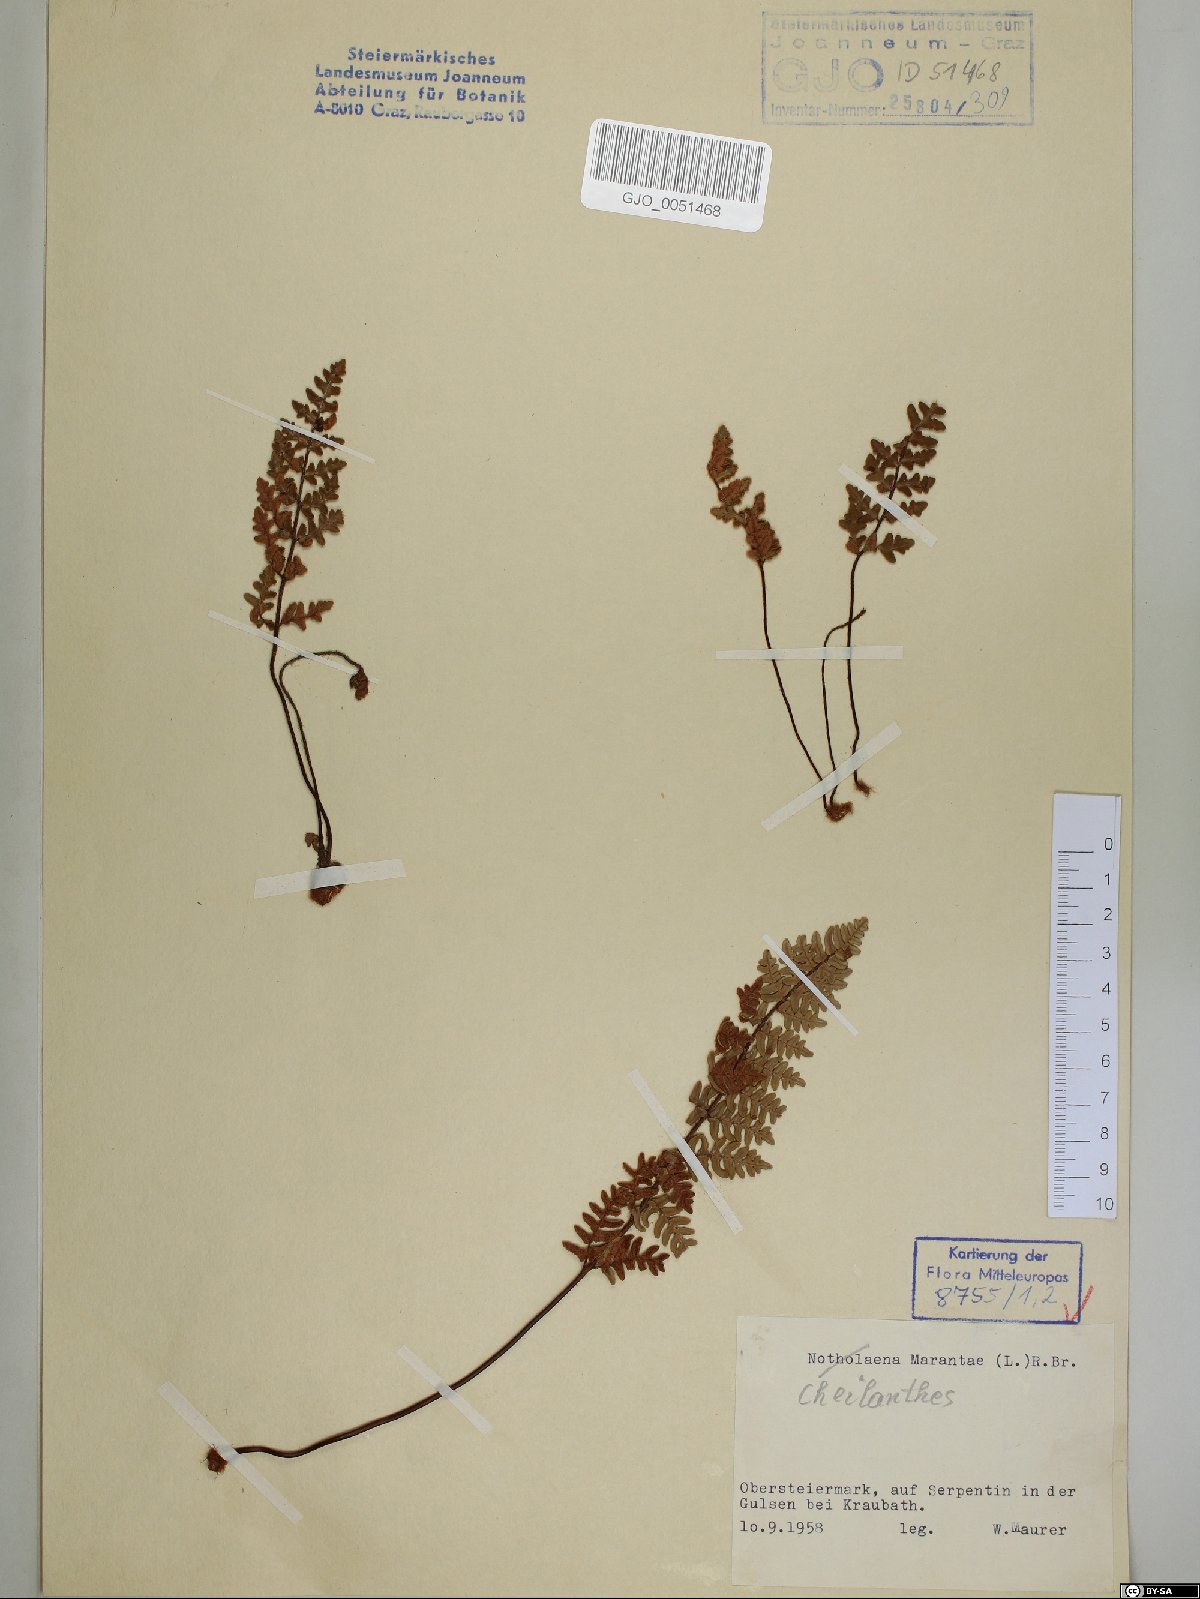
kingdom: Plantae
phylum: Tracheophyta
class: Polypodiopsida
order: Polypodiales
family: Pteridaceae
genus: Paragymnopteris
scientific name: Paragymnopteris marantae
